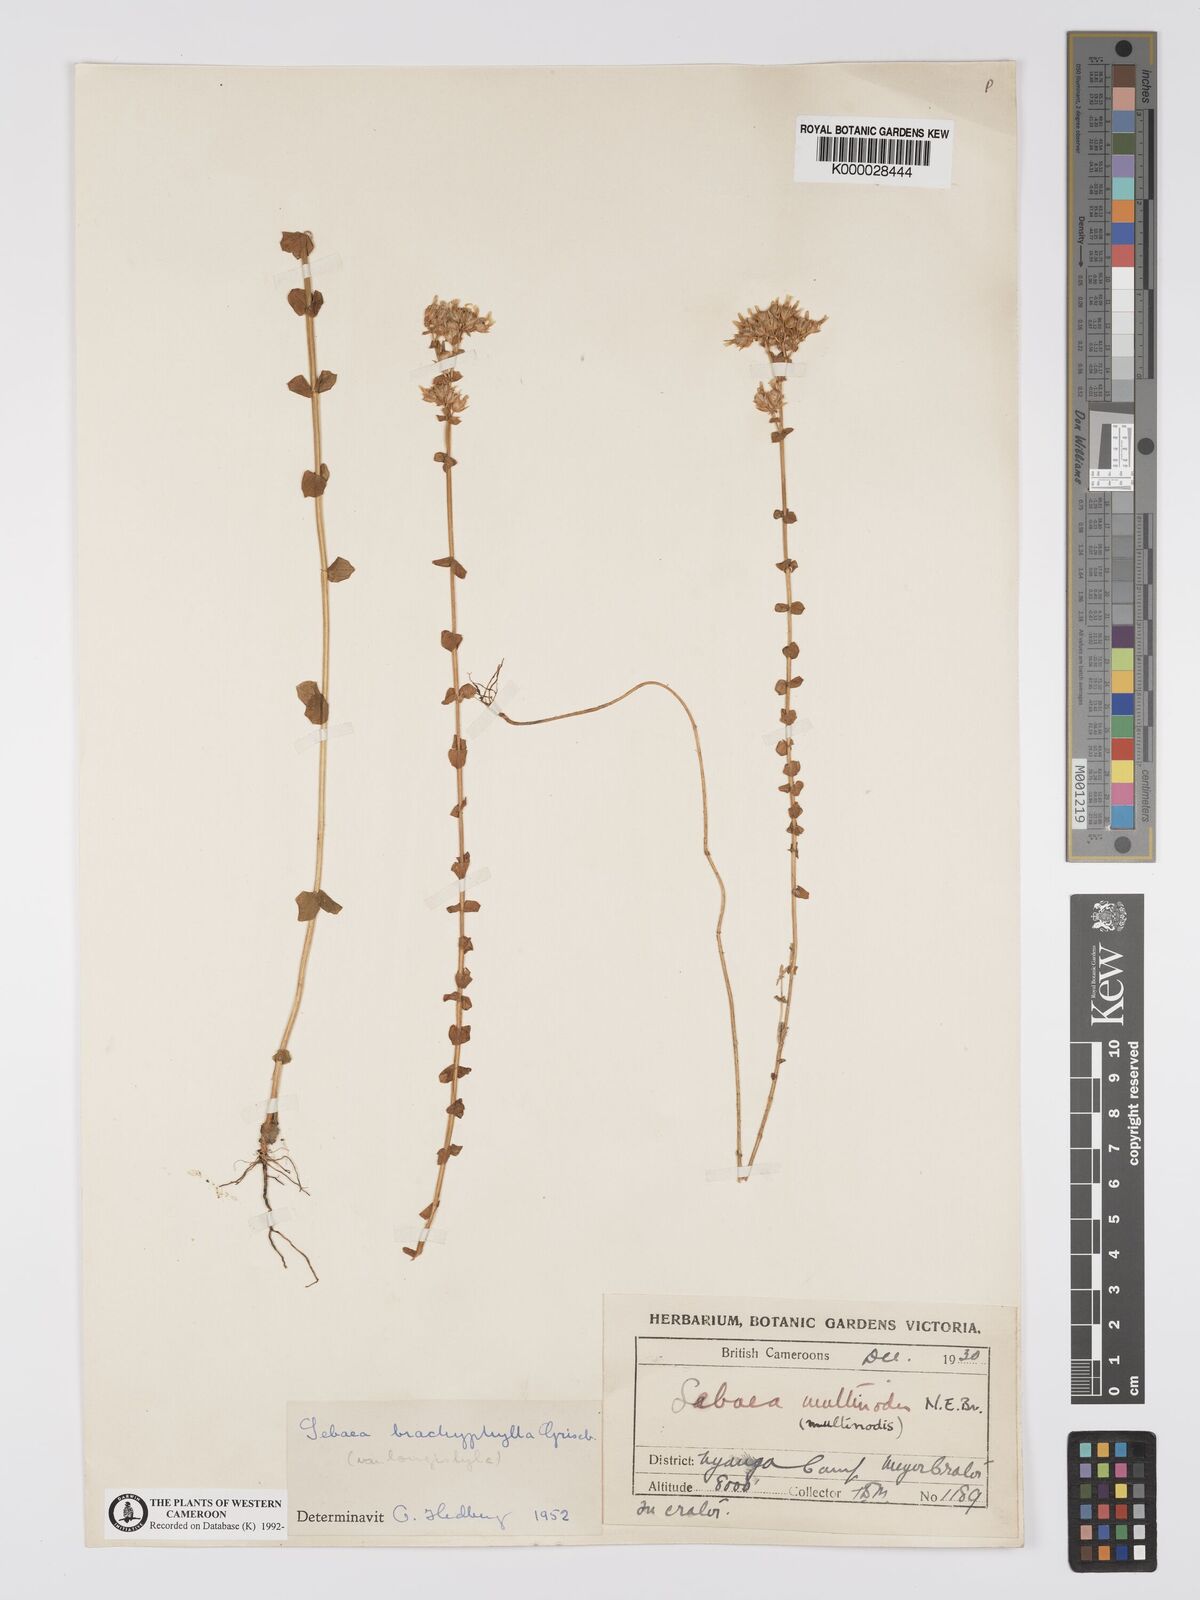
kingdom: Plantae
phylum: Tracheophyta
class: Magnoliopsida
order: Gentianales
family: Gentianaceae
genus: Sebaea
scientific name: Sebaea brachyphylla
